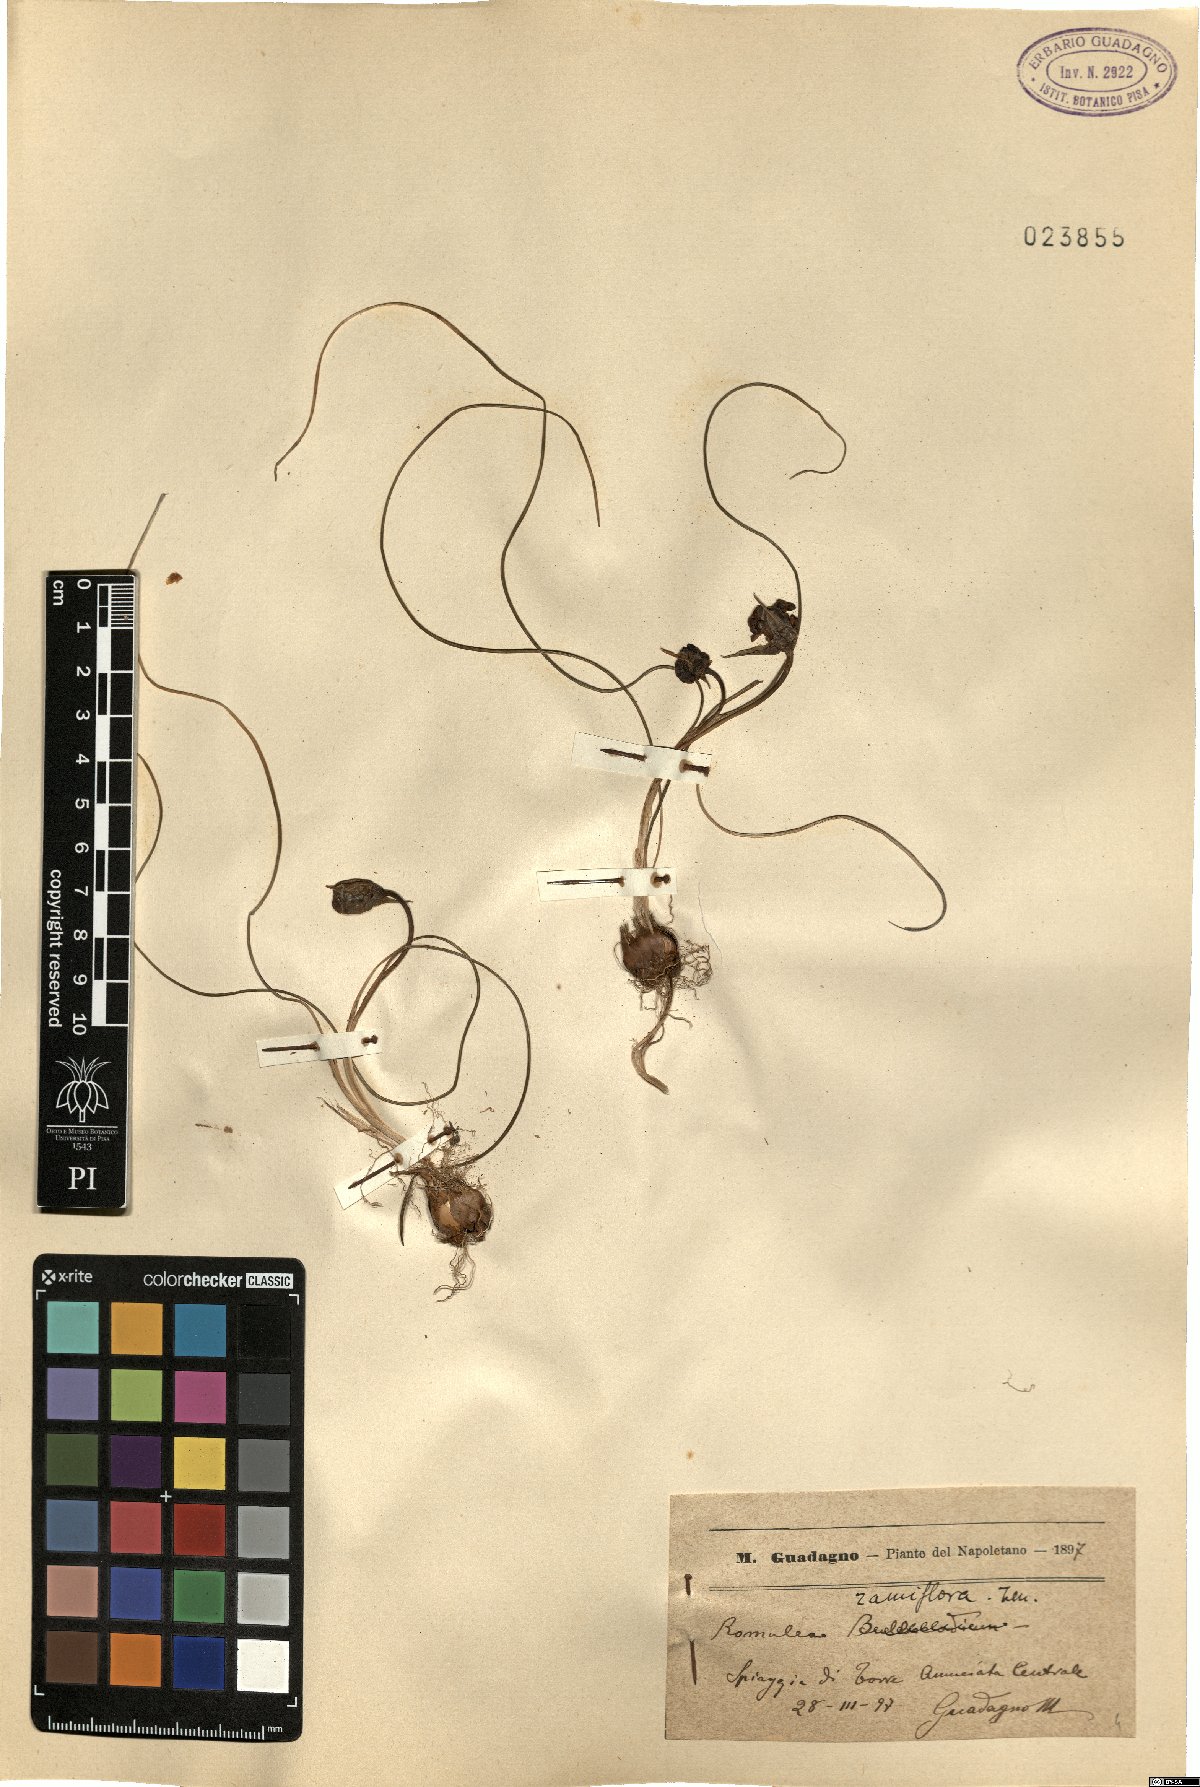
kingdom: Plantae
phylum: Tracheophyta
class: Liliopsida
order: Asparagales
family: Iridaceae
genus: Romulea
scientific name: Romulea ramiflora
